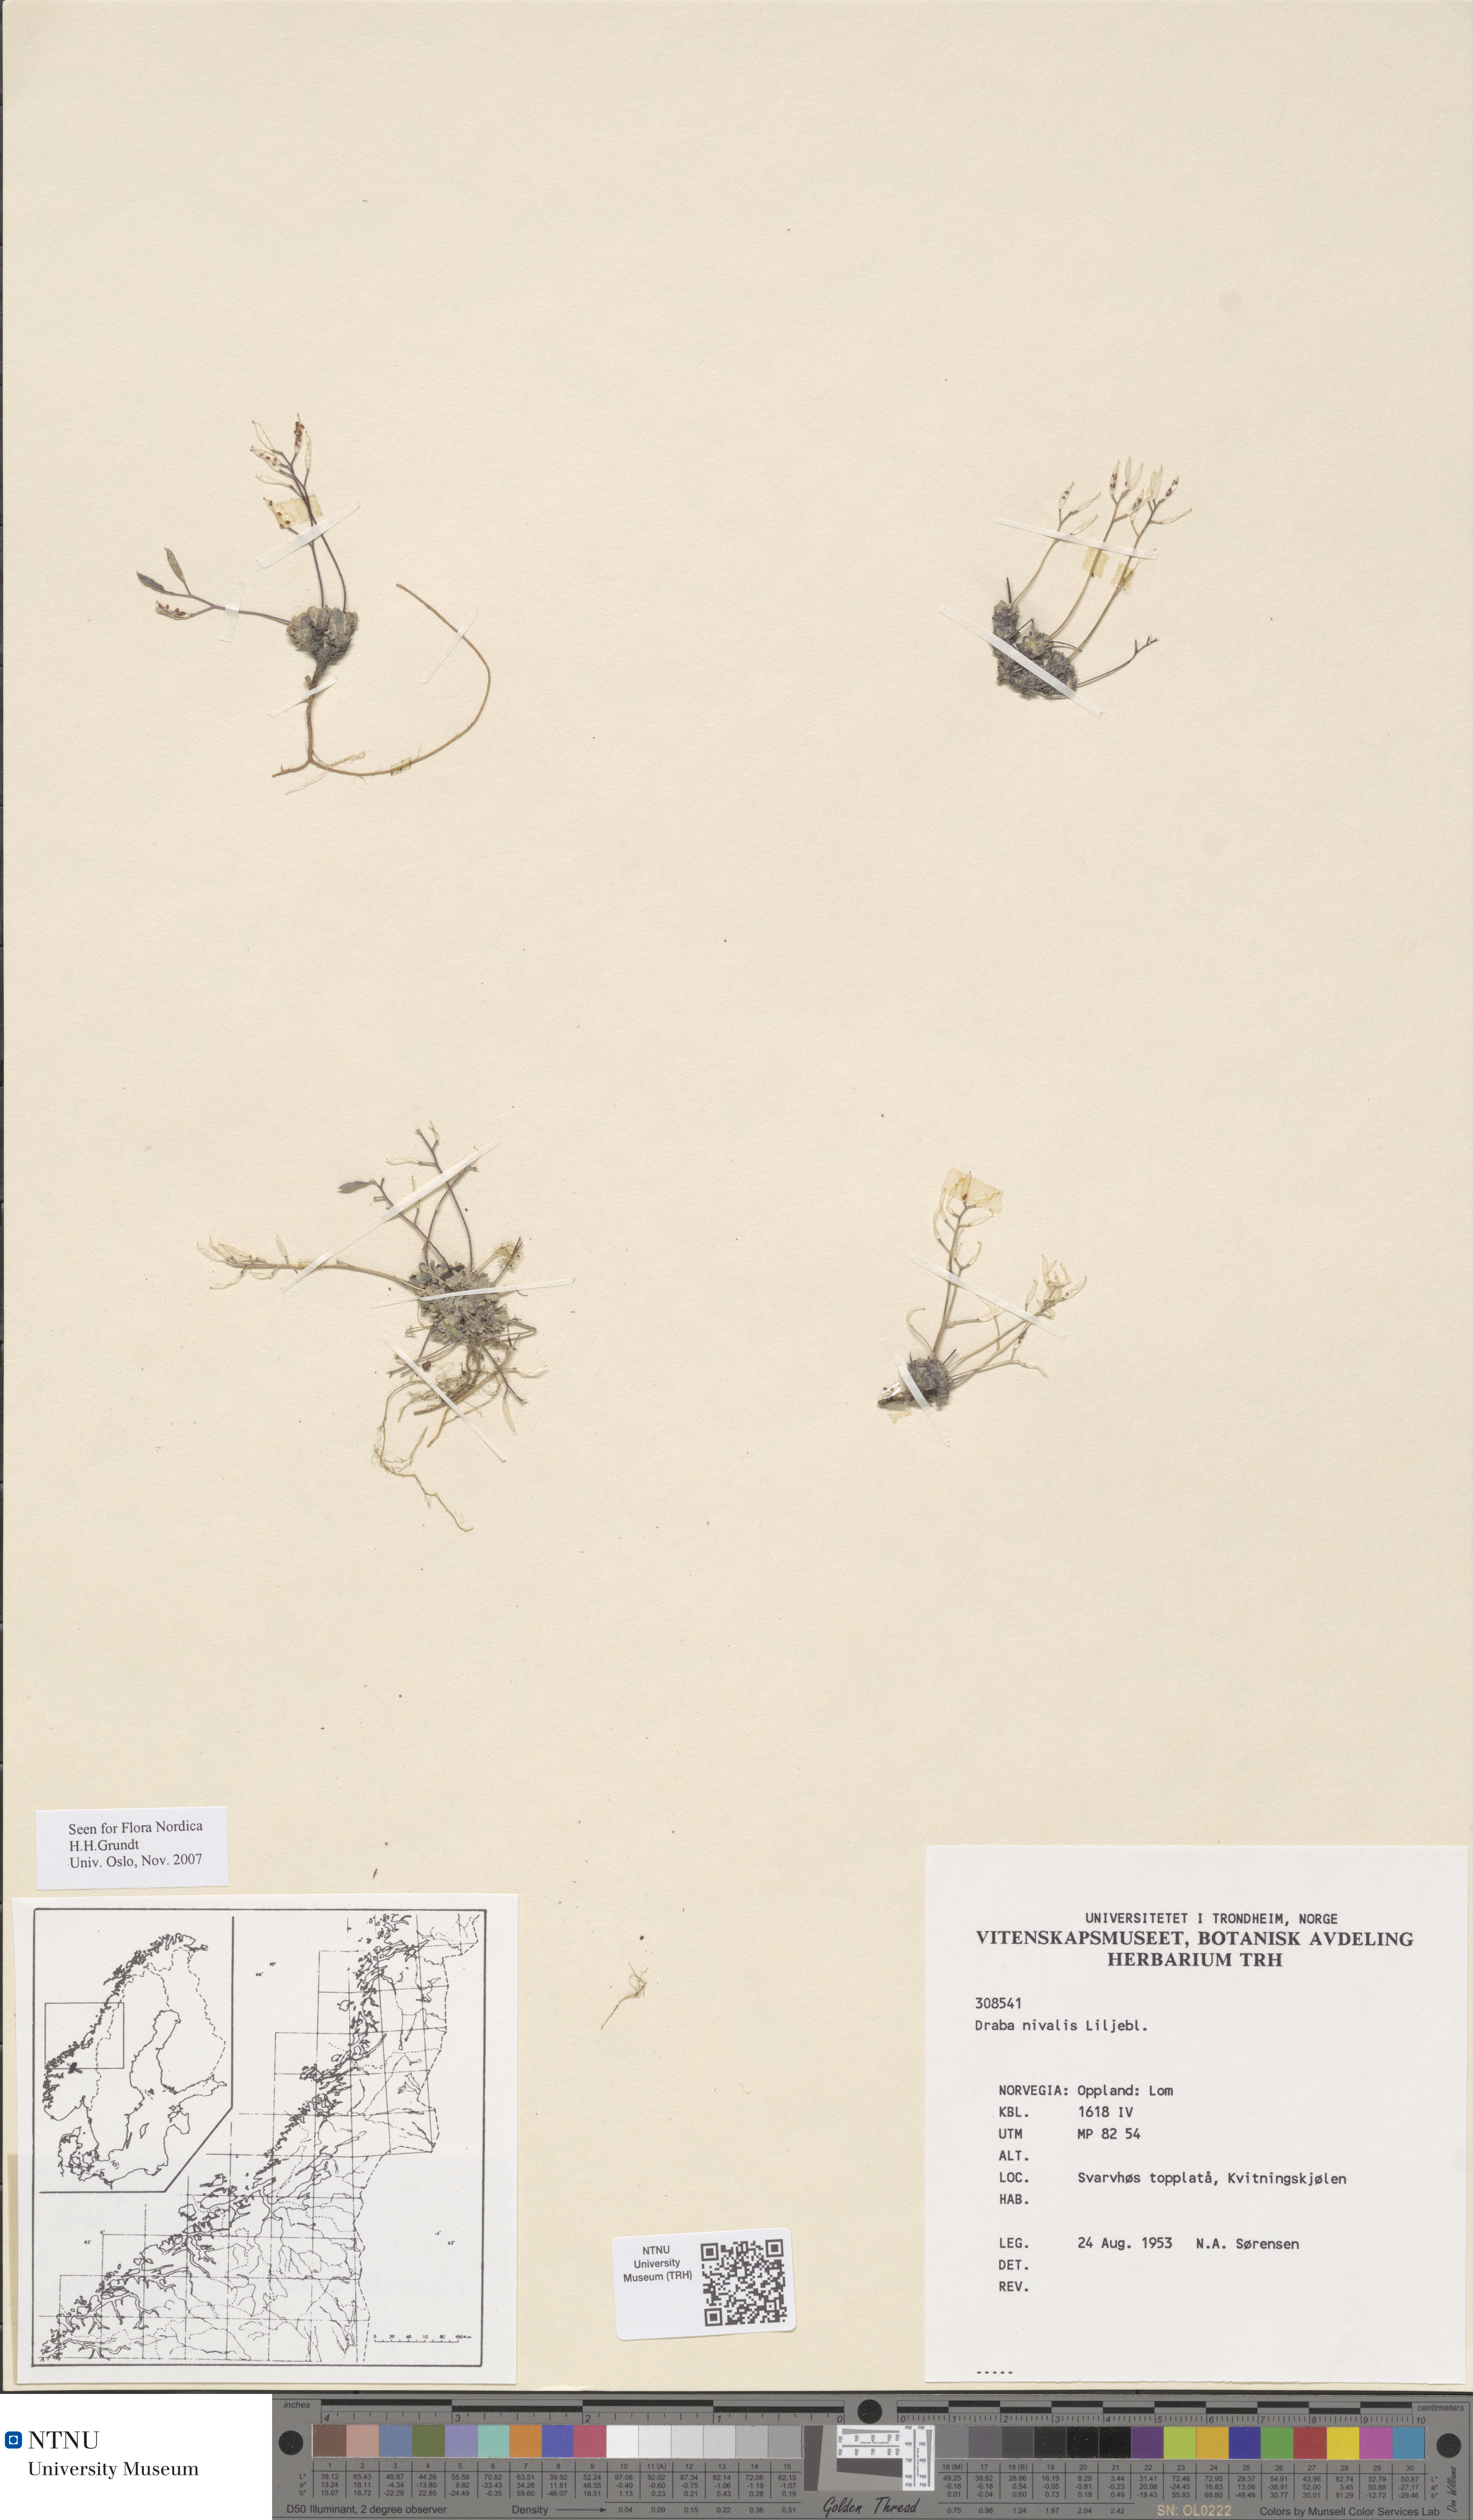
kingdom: Plantae
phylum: Tracheophyta
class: Magnoliopsida
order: Brassicales
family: Brassicaceae
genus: Draba
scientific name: Draba nivalis
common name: Snow draba
